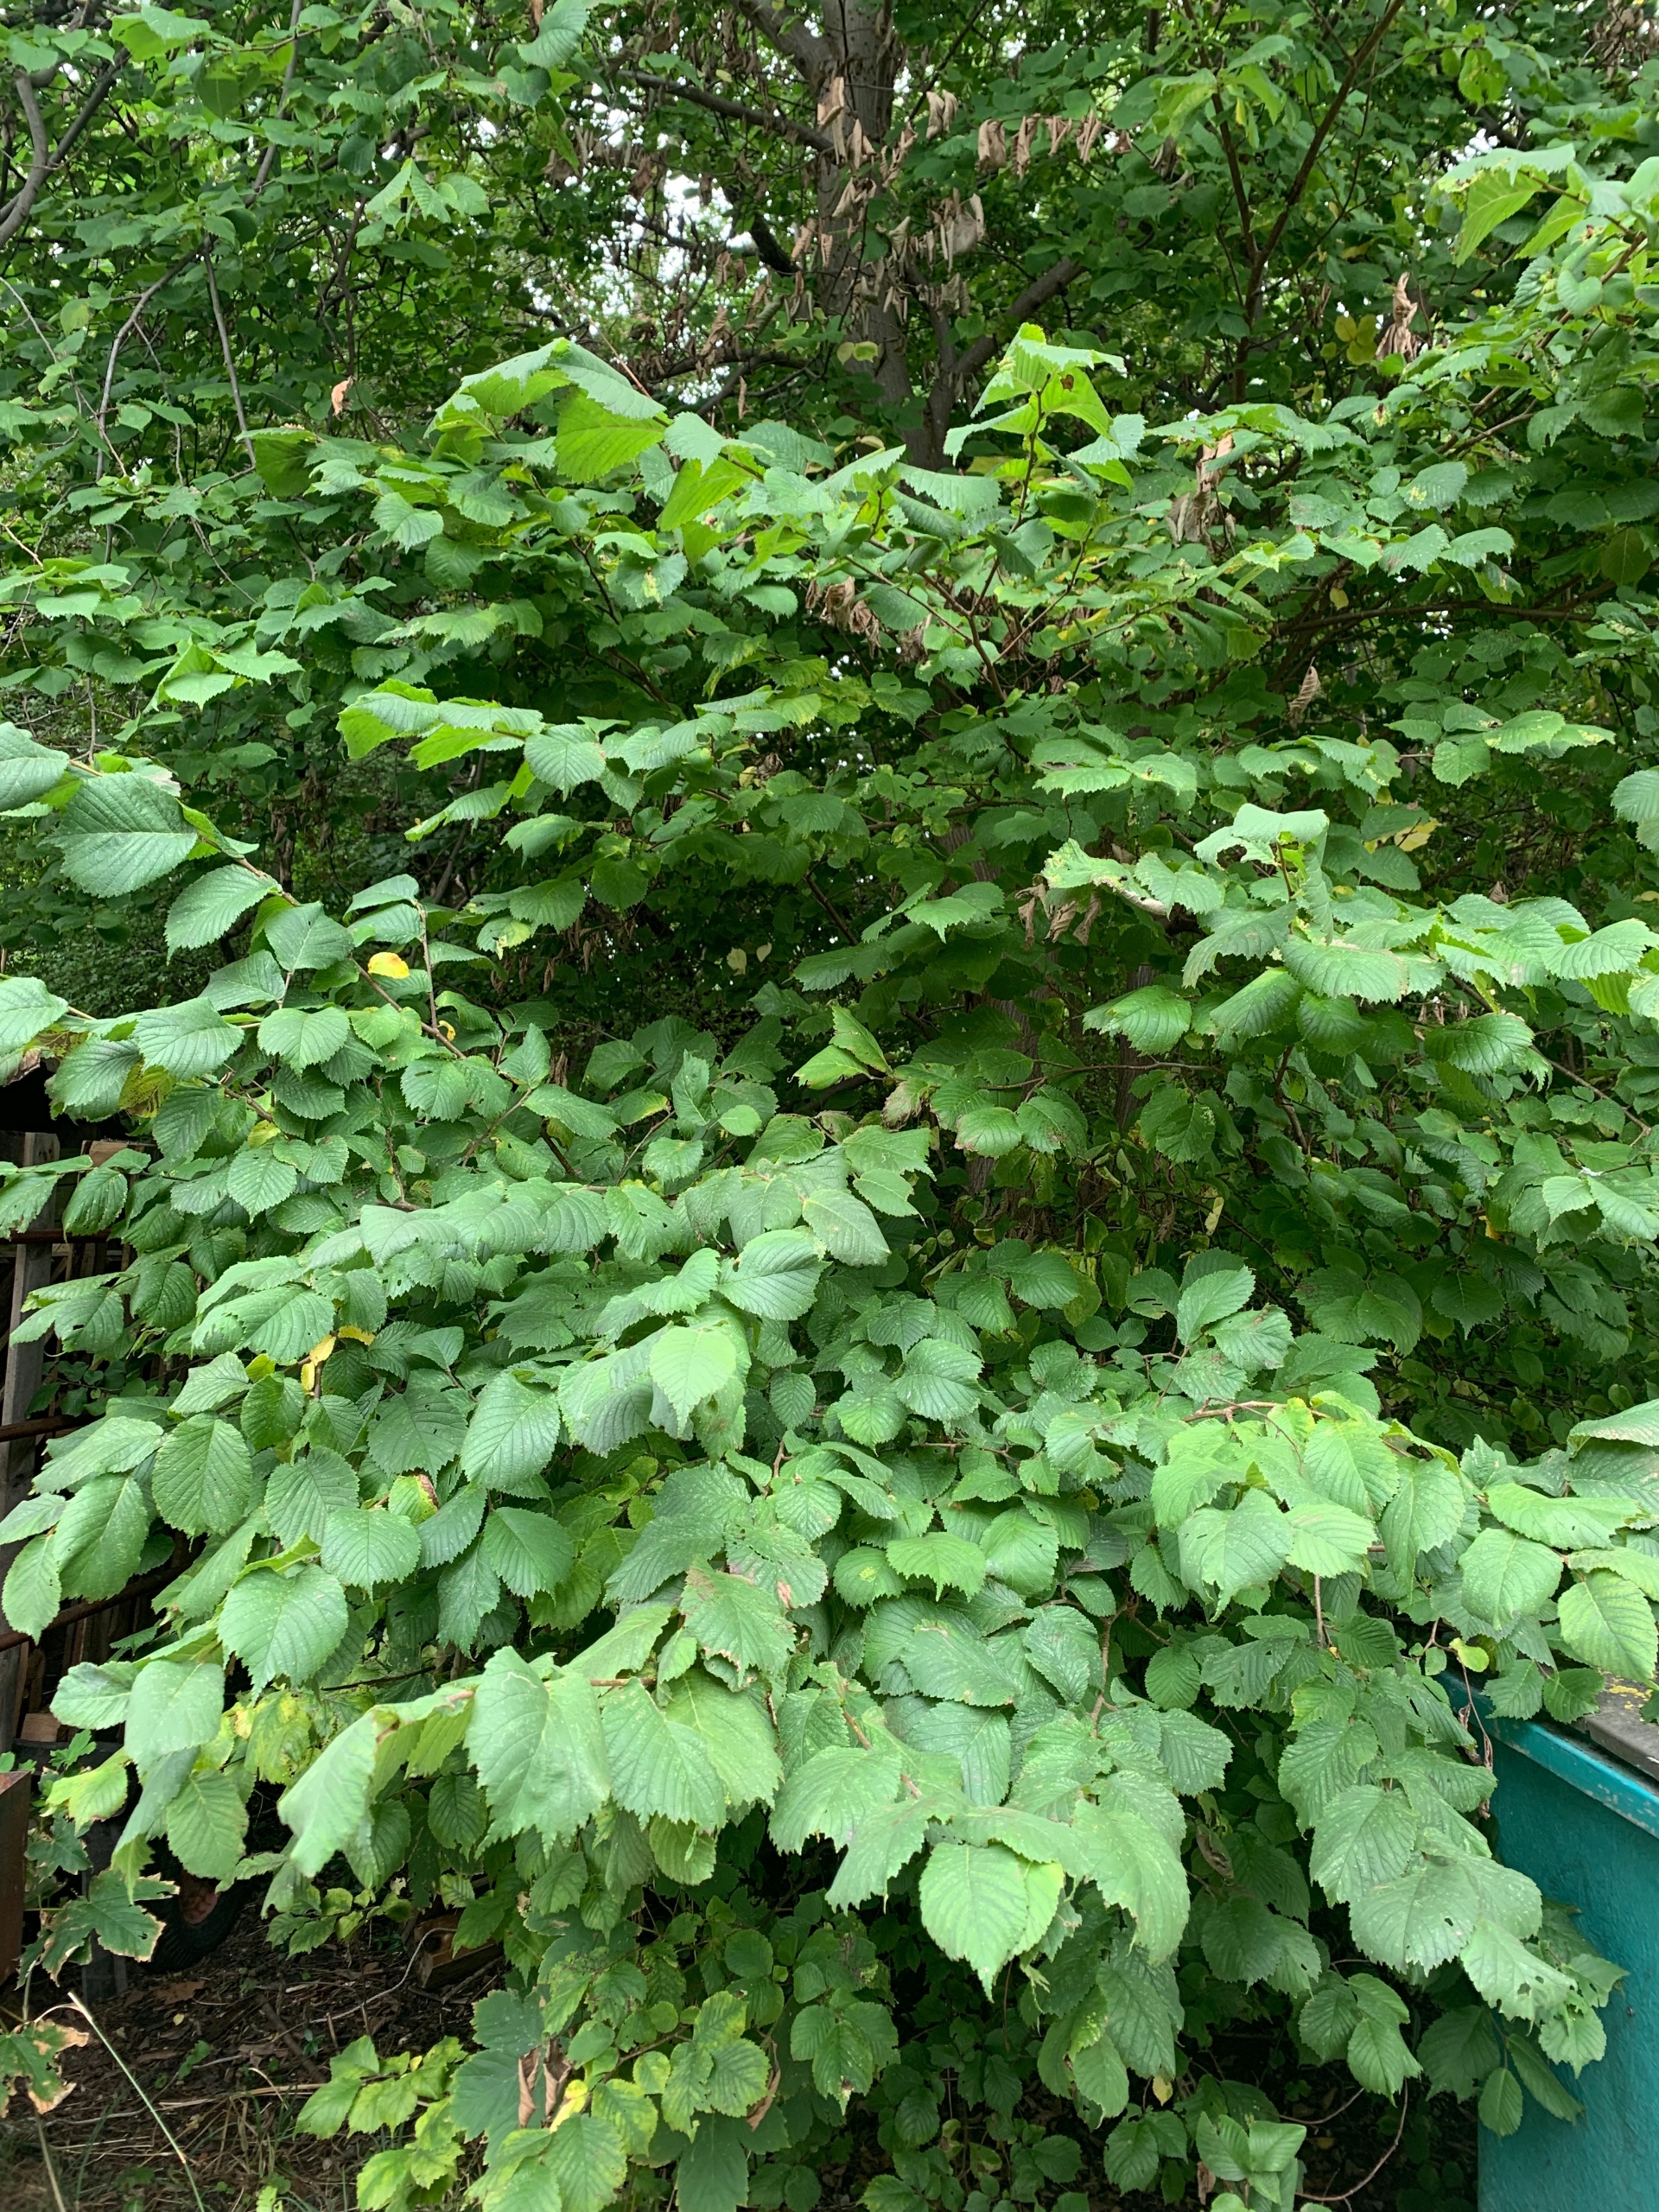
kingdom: Plantae
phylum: Tracheophyta
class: Magnoliopsida
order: Rosales
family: Ulmaceae
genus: Ulmus
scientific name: Ulmus glabra
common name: Skov-elm/storbladet elm
